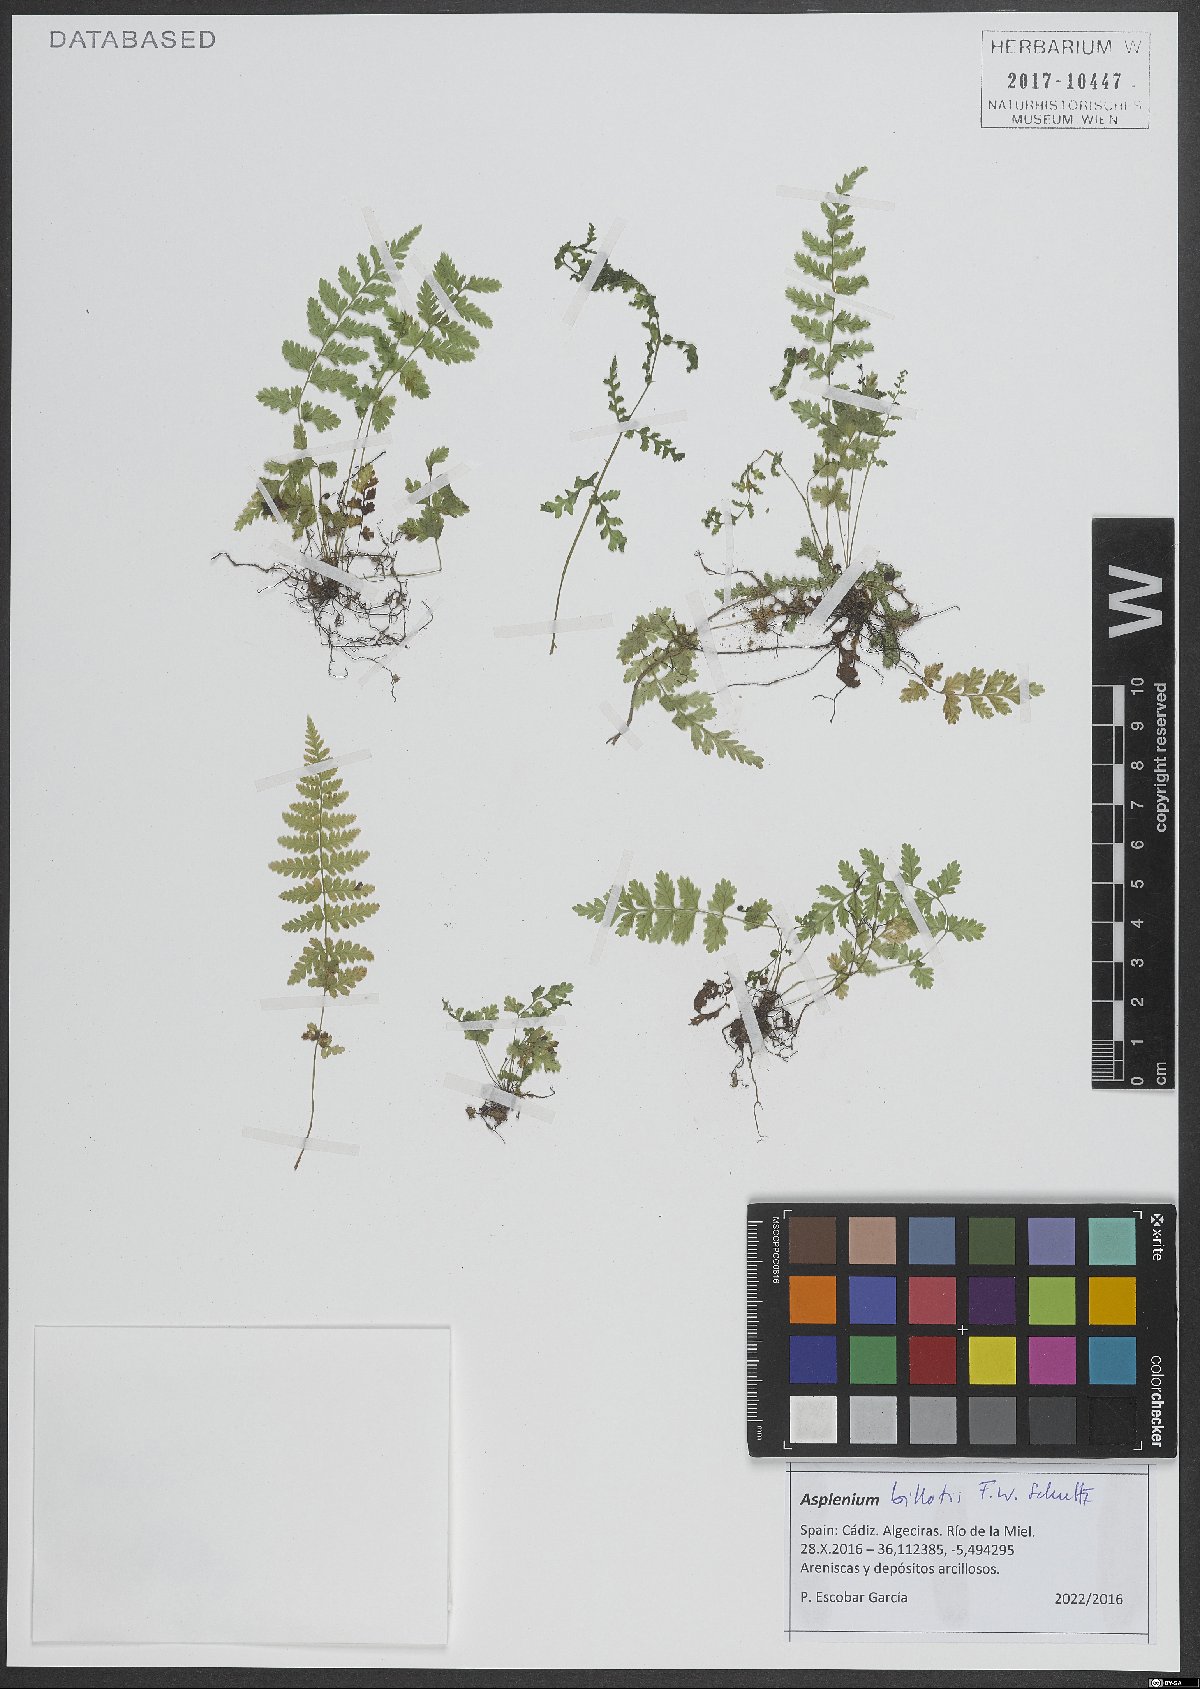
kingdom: Plantae
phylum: Tracheophyta
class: Polypodiopsida
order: Polypodiales
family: Aspleniaceae
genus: Asplenium
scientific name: Asplenium obovatum
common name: Lanceolate spleenwort
